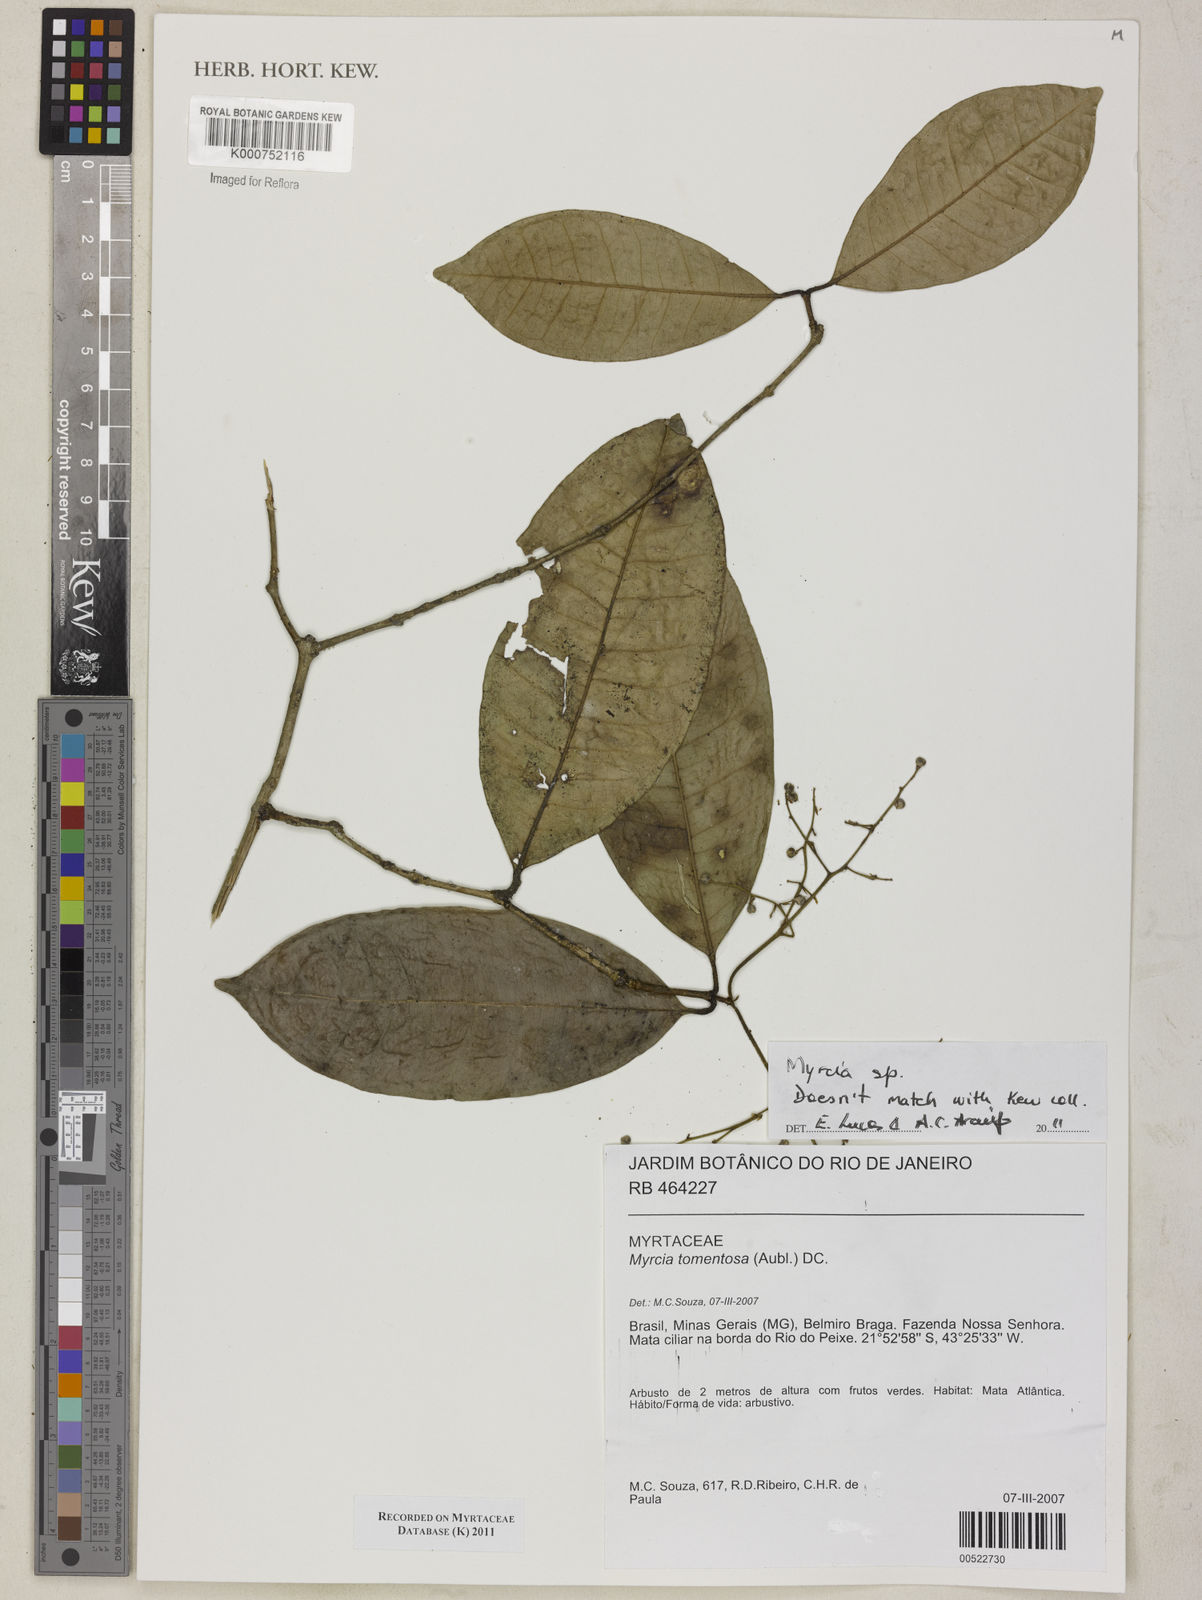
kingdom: Plantae
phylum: Tracheophyta
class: Magnoliopsida
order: Myrtales
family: Myrtaceae
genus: Myrcia
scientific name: Myrcia
